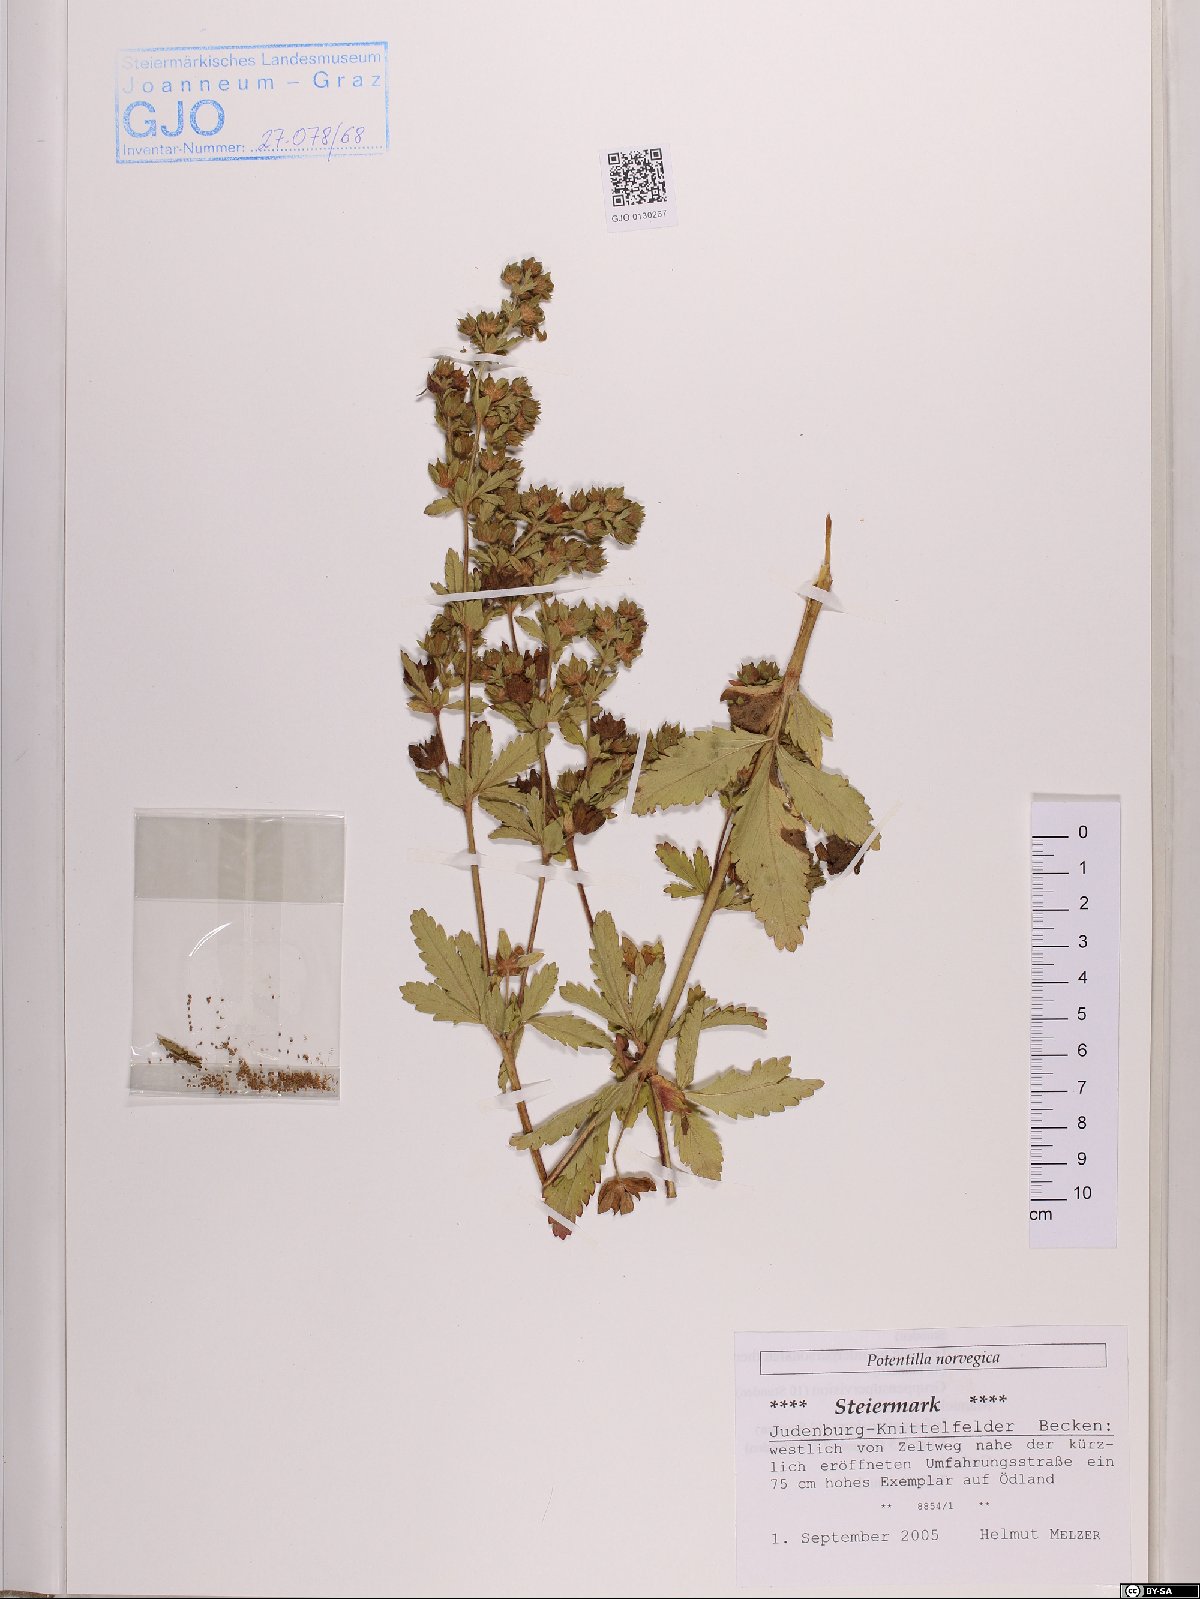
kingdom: Plantae
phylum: Tracheophyta
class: Magnoliopsida
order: Rosales
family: Rosaceae
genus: Potentilla
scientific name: Potentilla norvegica
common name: Ternate-leaved cinquefoil
